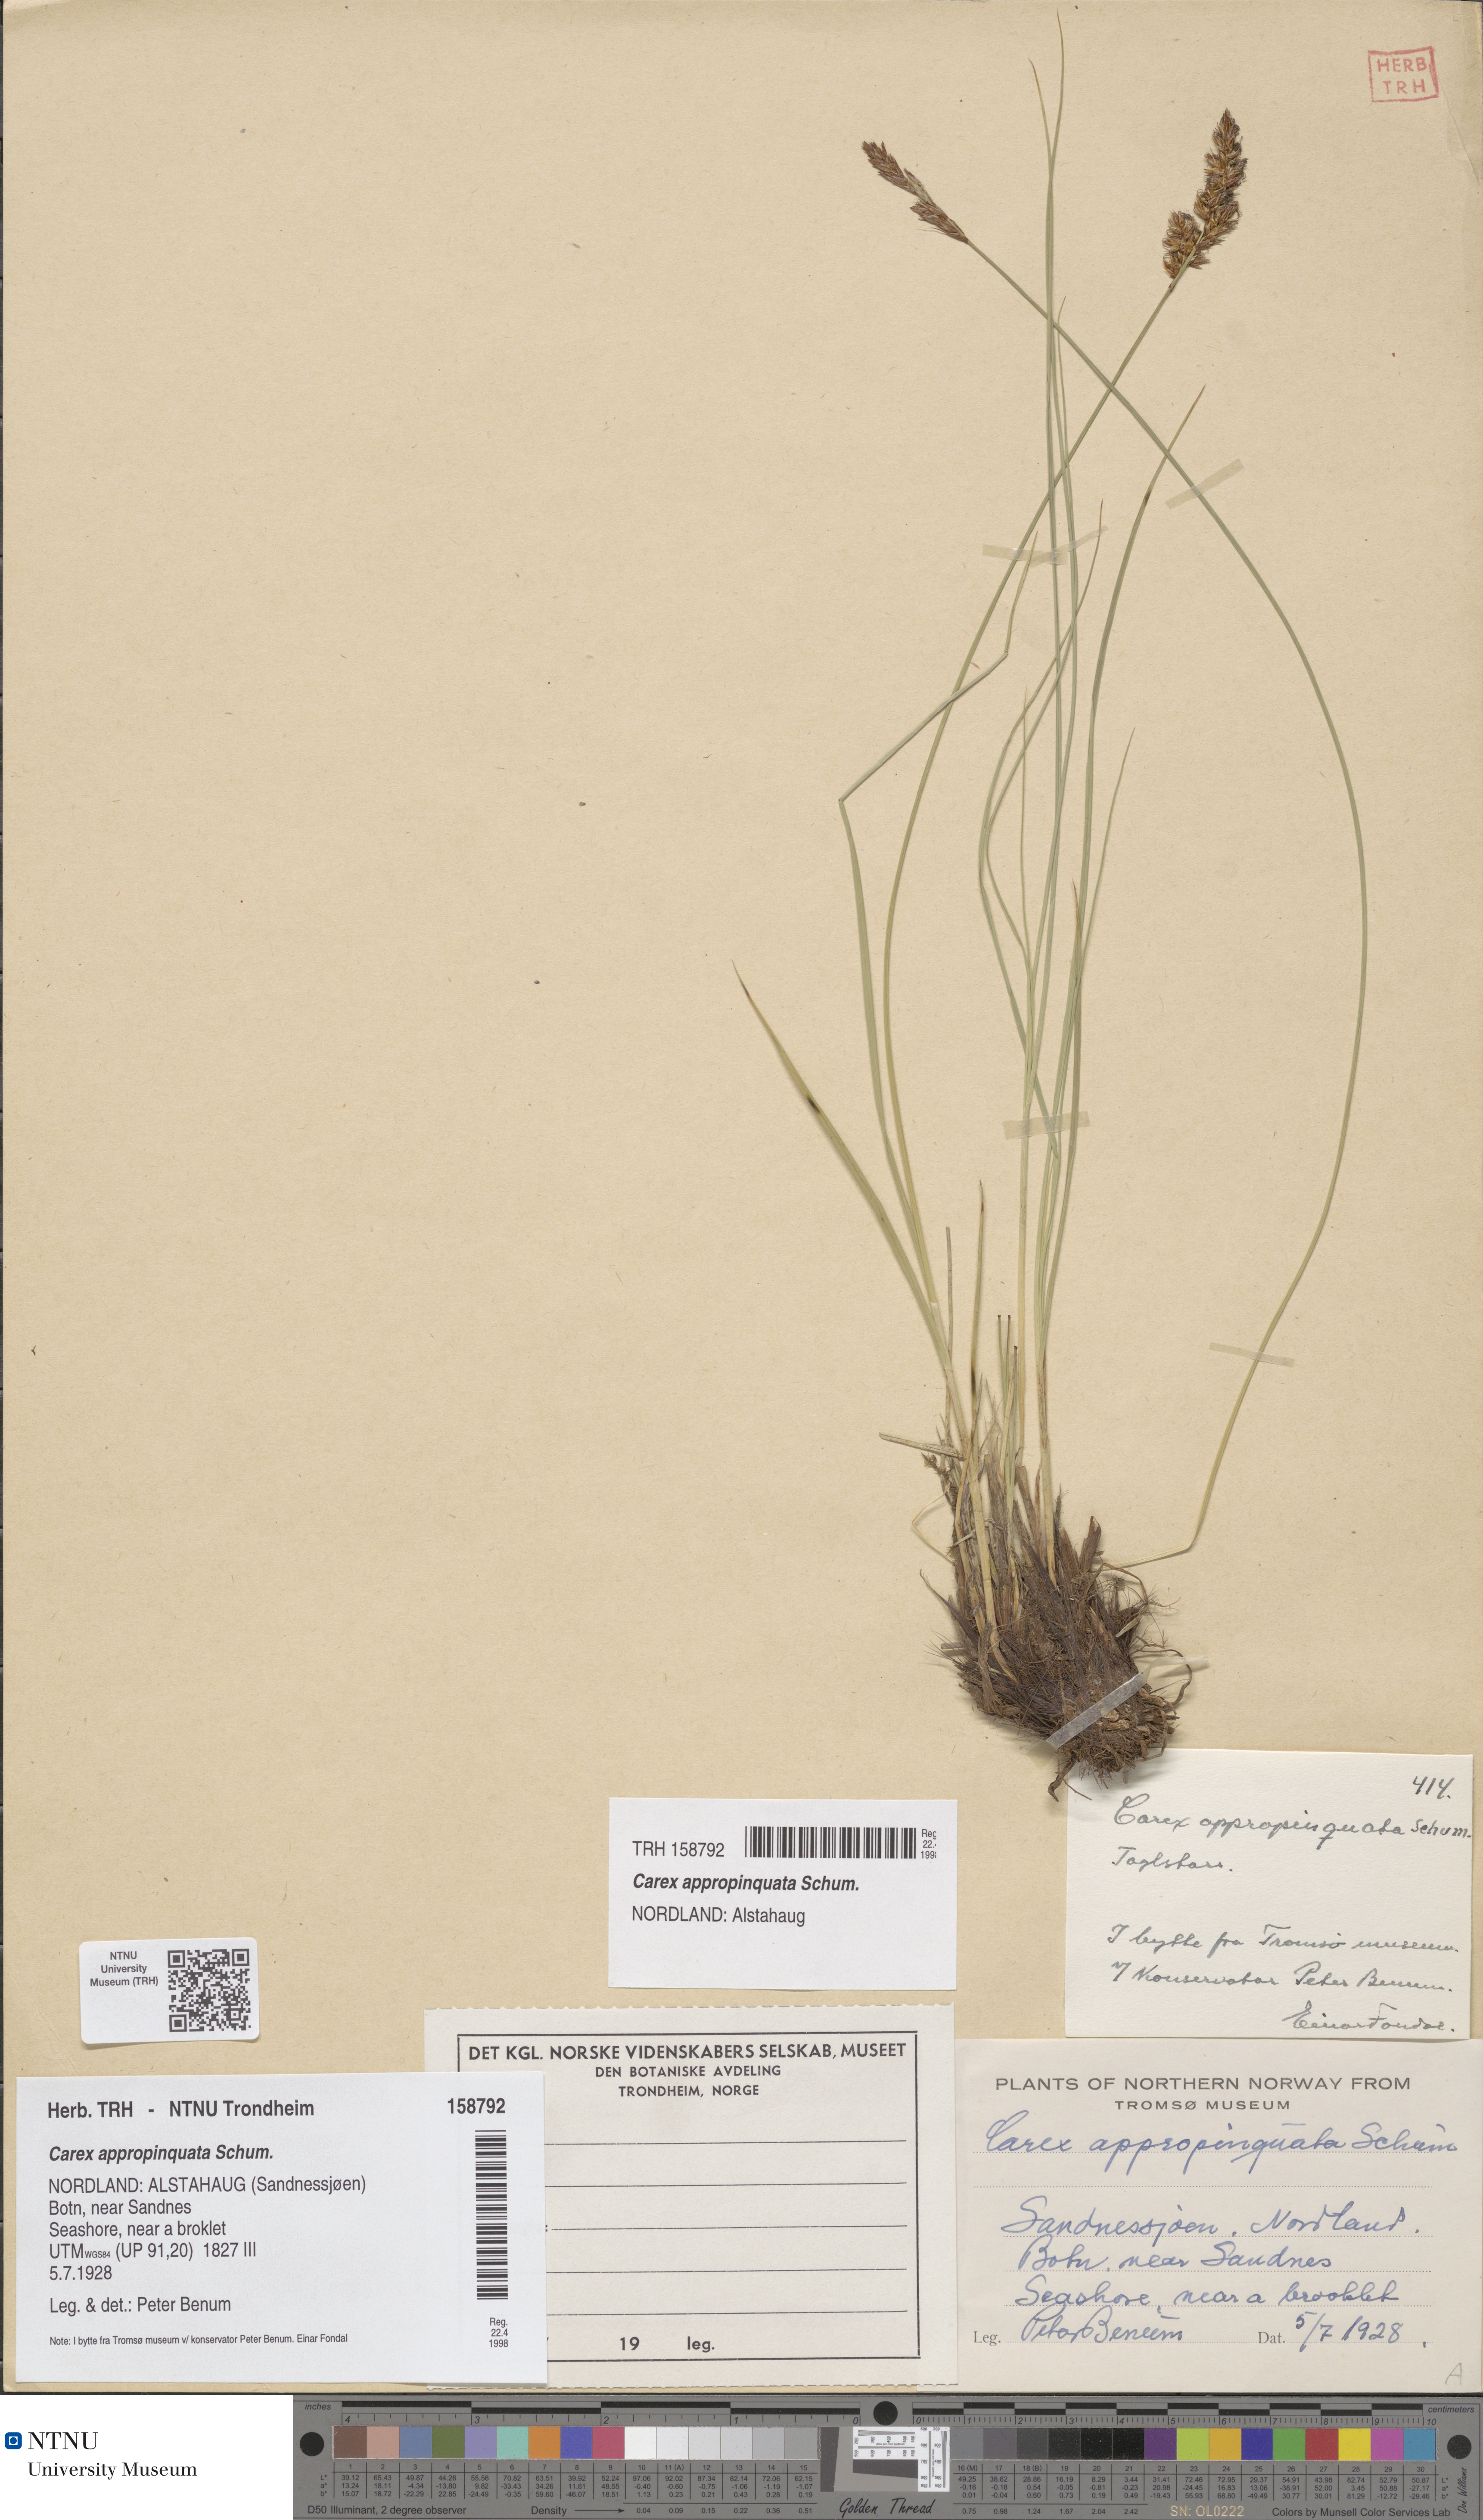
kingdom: Plantae
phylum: Tracheophyta
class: Liliopsida
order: Poales
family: Cyperaceae
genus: Carex
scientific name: Carex appropinquata
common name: Fibrous tussock-sedge
